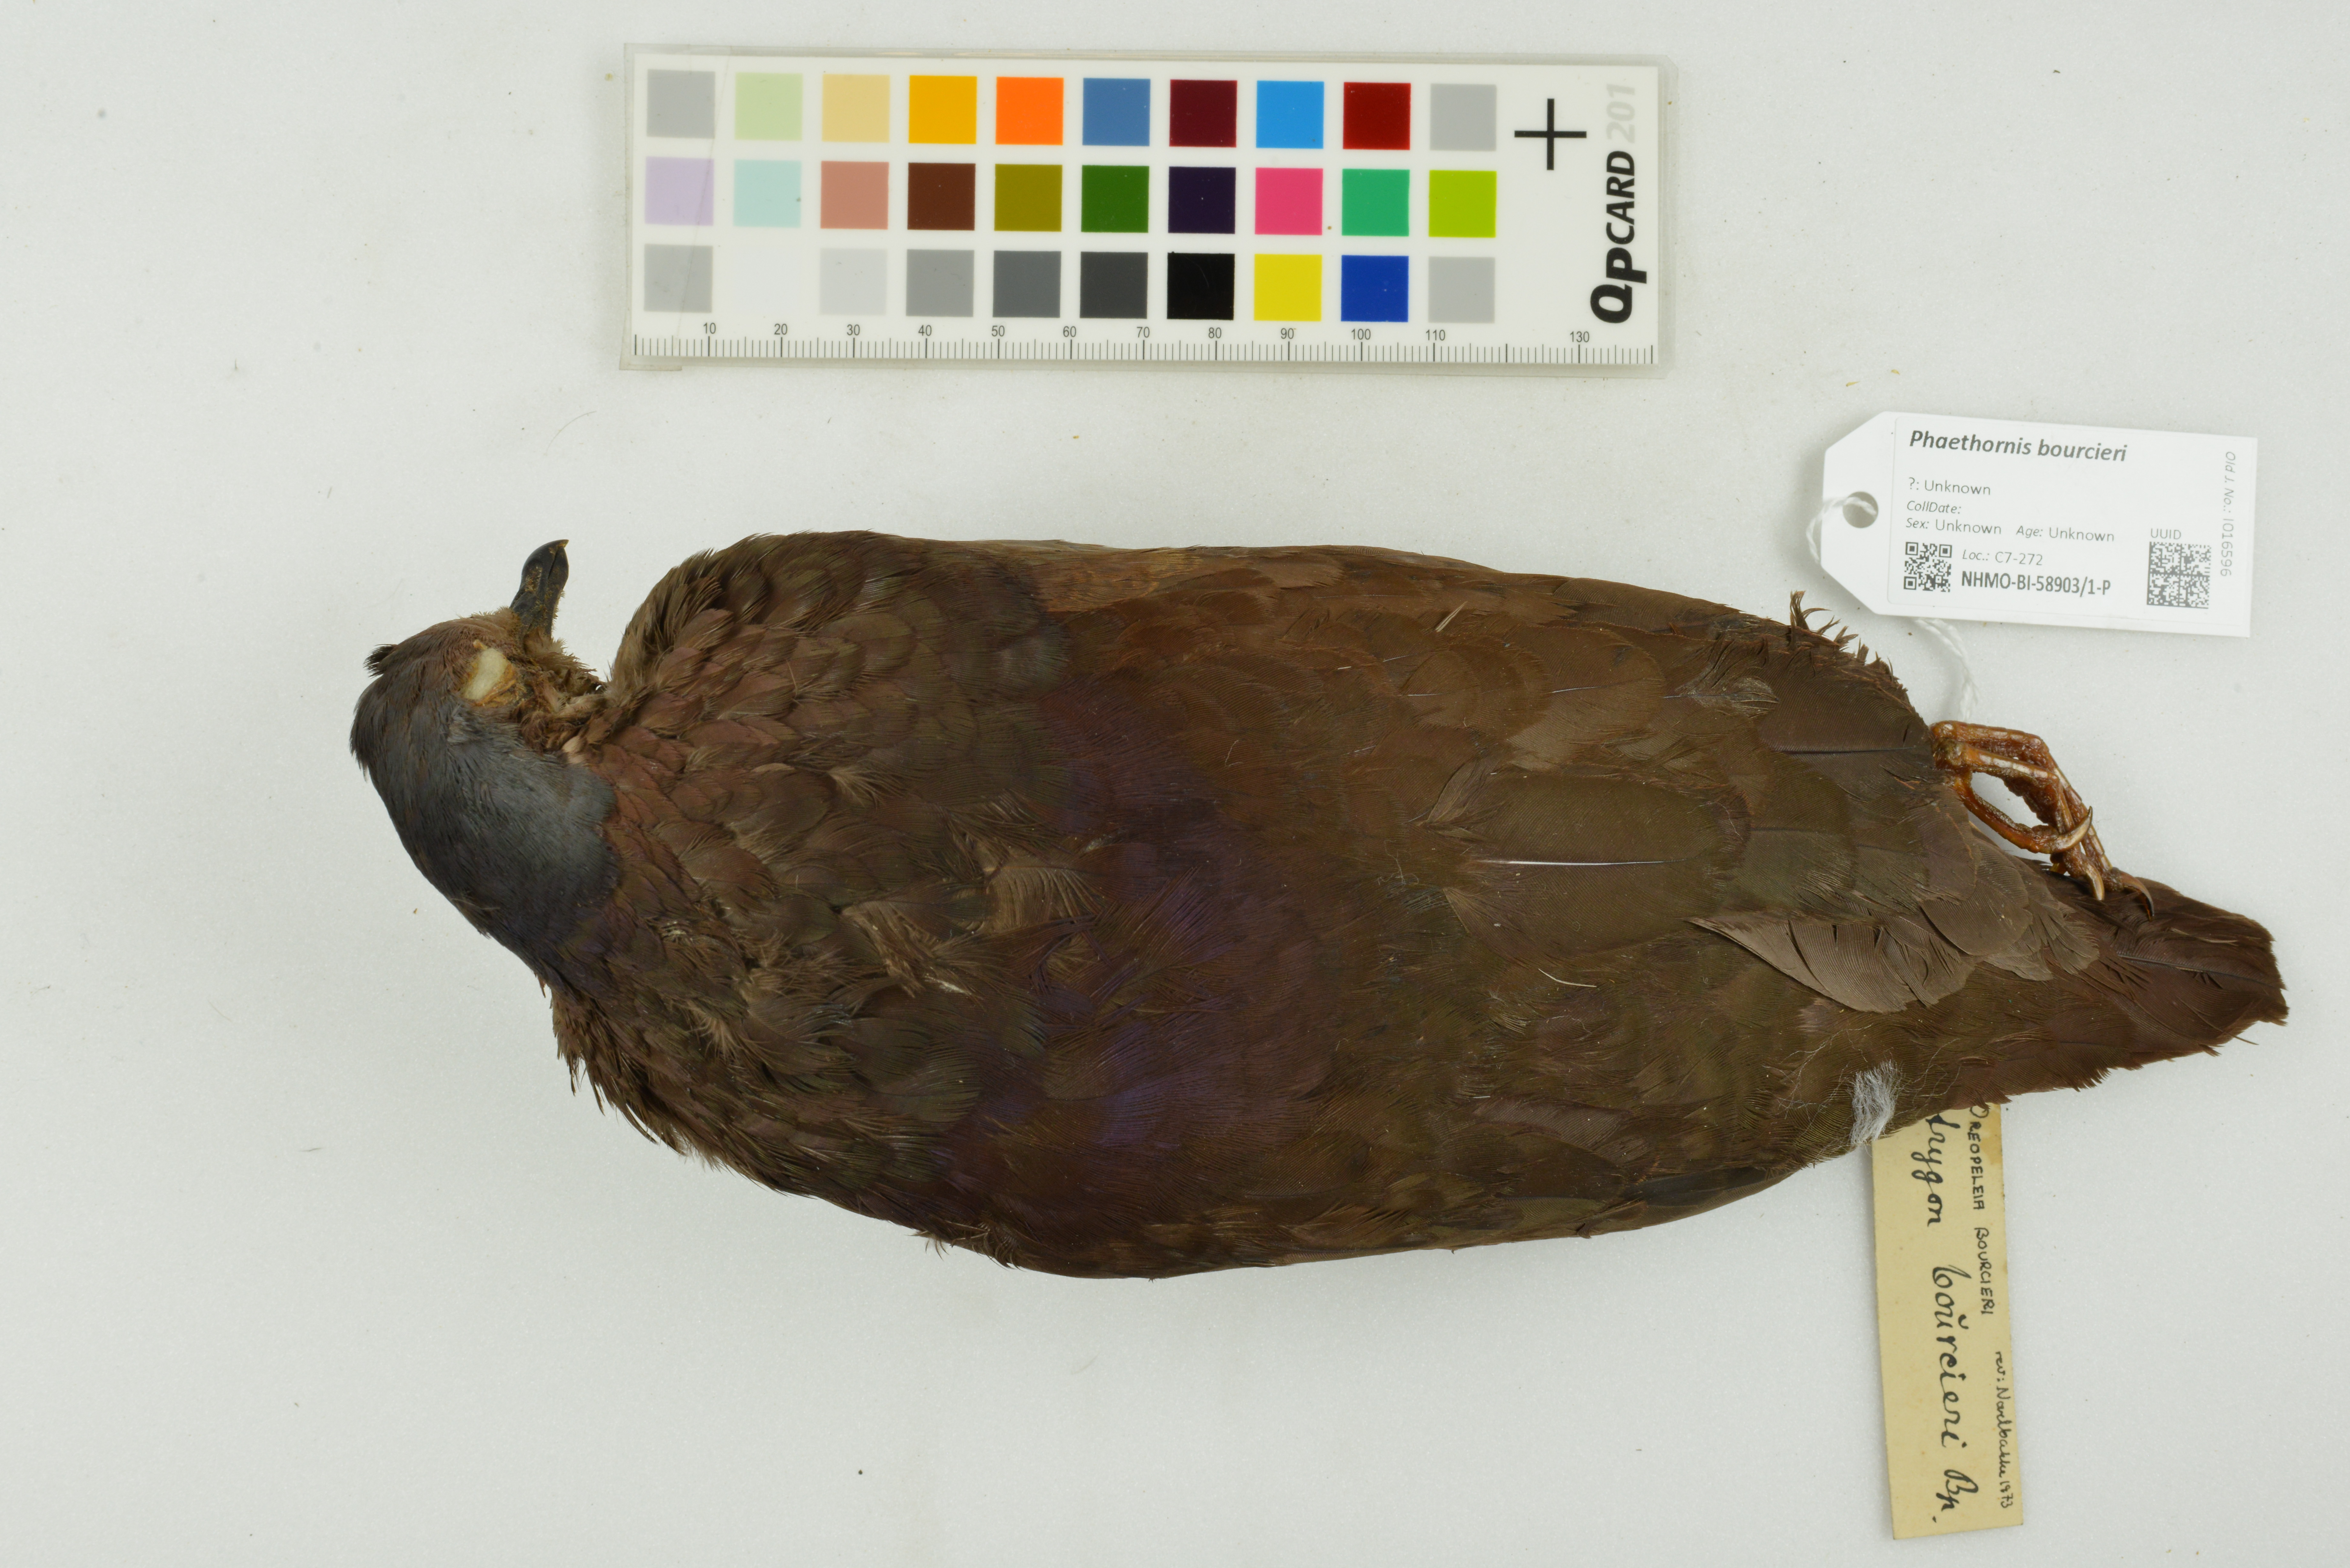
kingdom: Animalia
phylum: Chordata
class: Aves
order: Columbiformes
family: Columbidae
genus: Zentrygon
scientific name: Zentrygon frenata
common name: White-throated quail-dove
